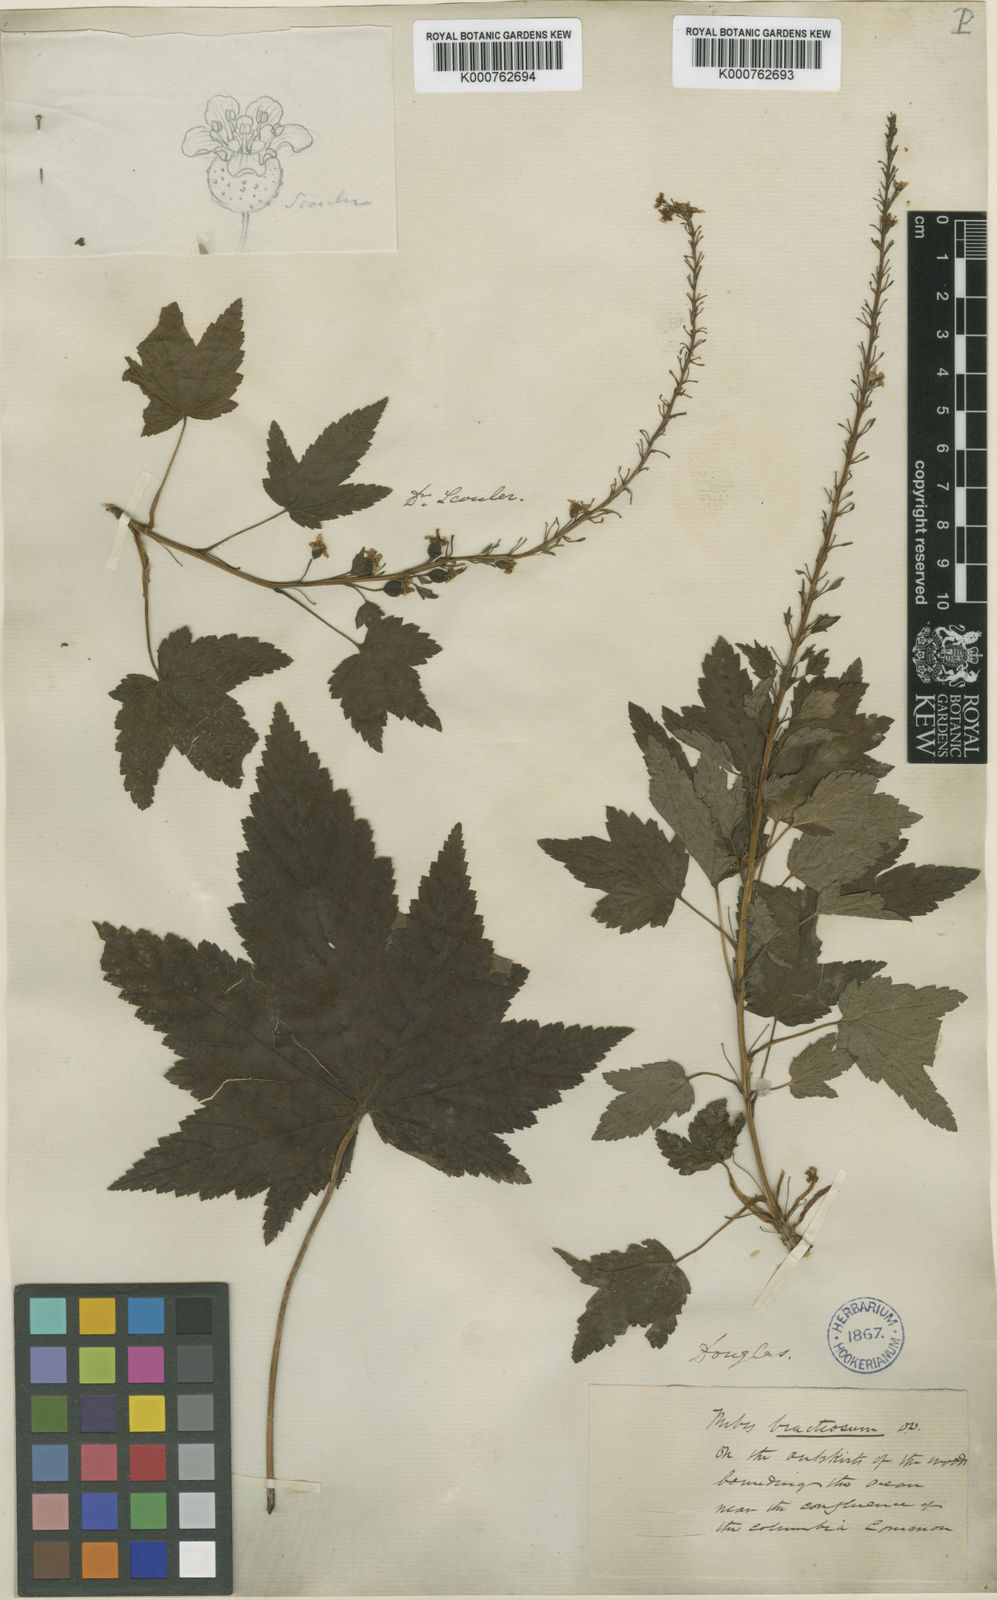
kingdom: Plantae
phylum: Tracheophyta
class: Magnoliopsida
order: Saxifragales
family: Grossulariaceae
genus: Ribes
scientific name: Ribes bracteosum
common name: California black currant
